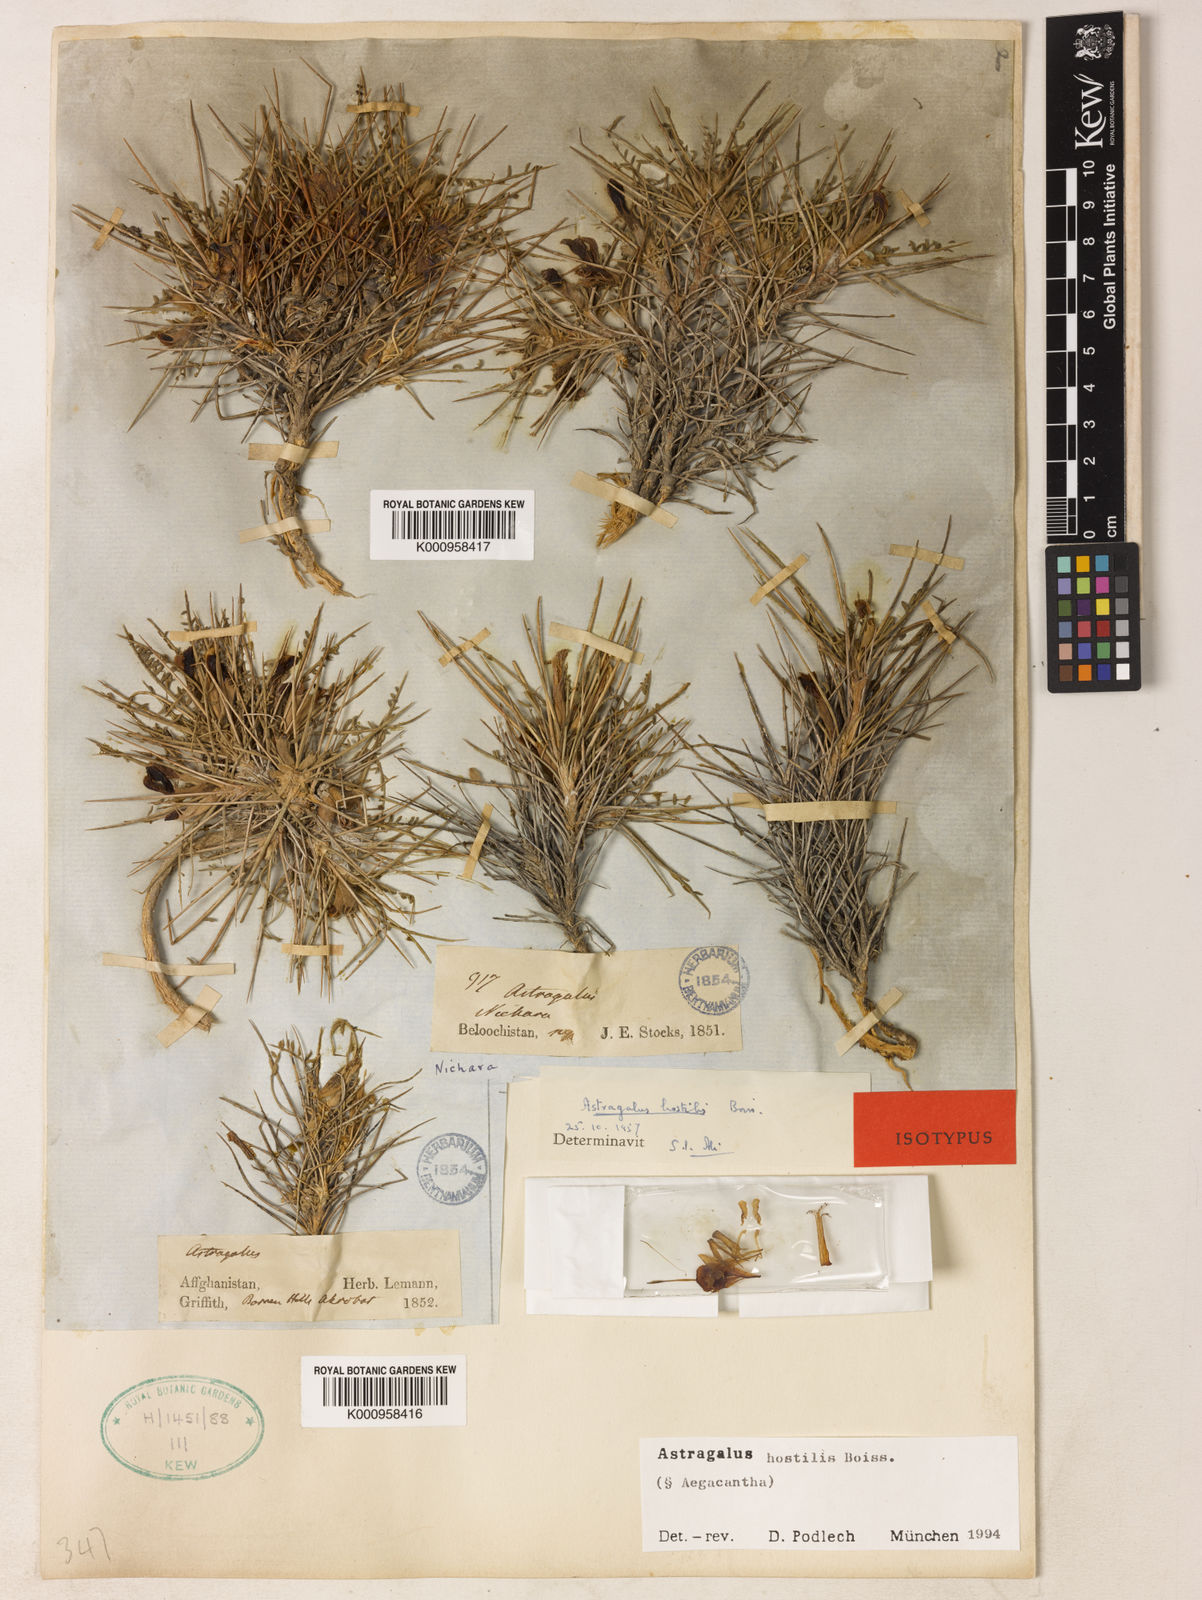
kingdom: Plantae
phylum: Tracheophyta
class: Magnoliopsida
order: Fabales
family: Fabaceae
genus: Astragalus
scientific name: Astragalus
